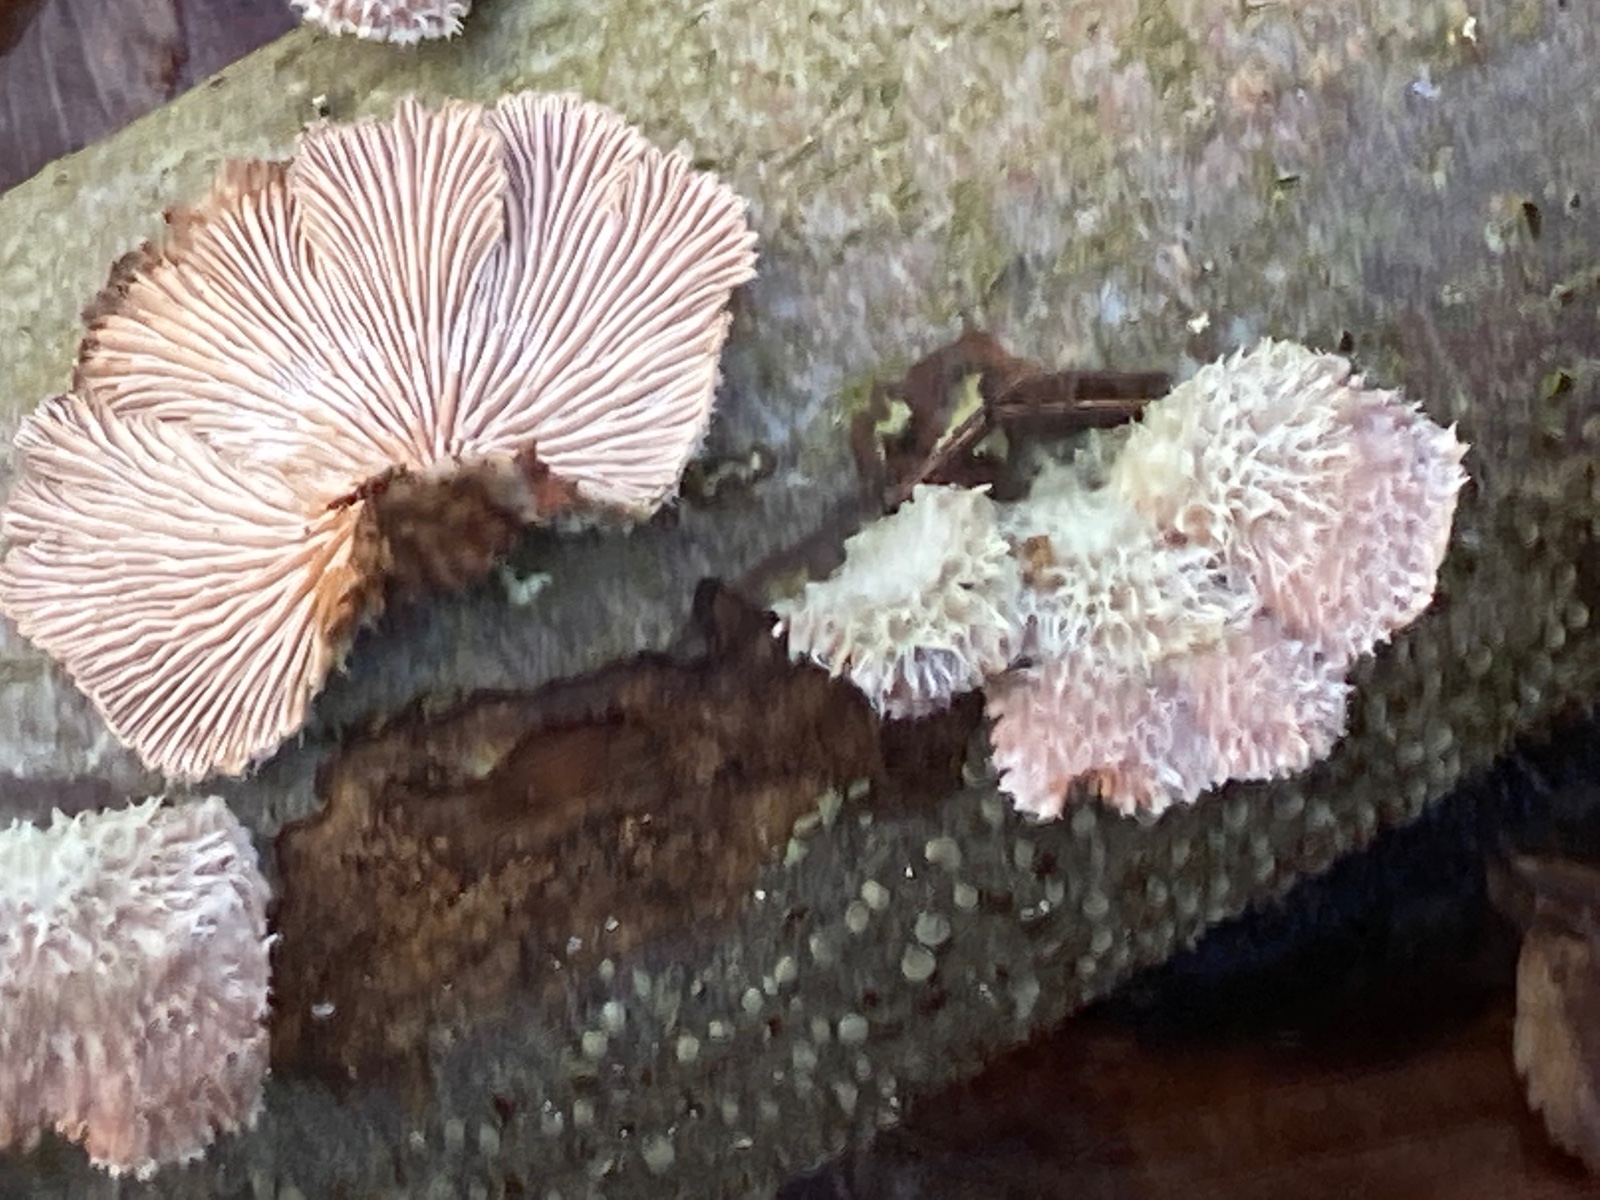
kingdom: Fungi
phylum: Basidiomycota
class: Agaricomycetes
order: Agaricales
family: Schizophyllaceae
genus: Schizophyllum
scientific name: Schizophyllum commune
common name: kløvblad
